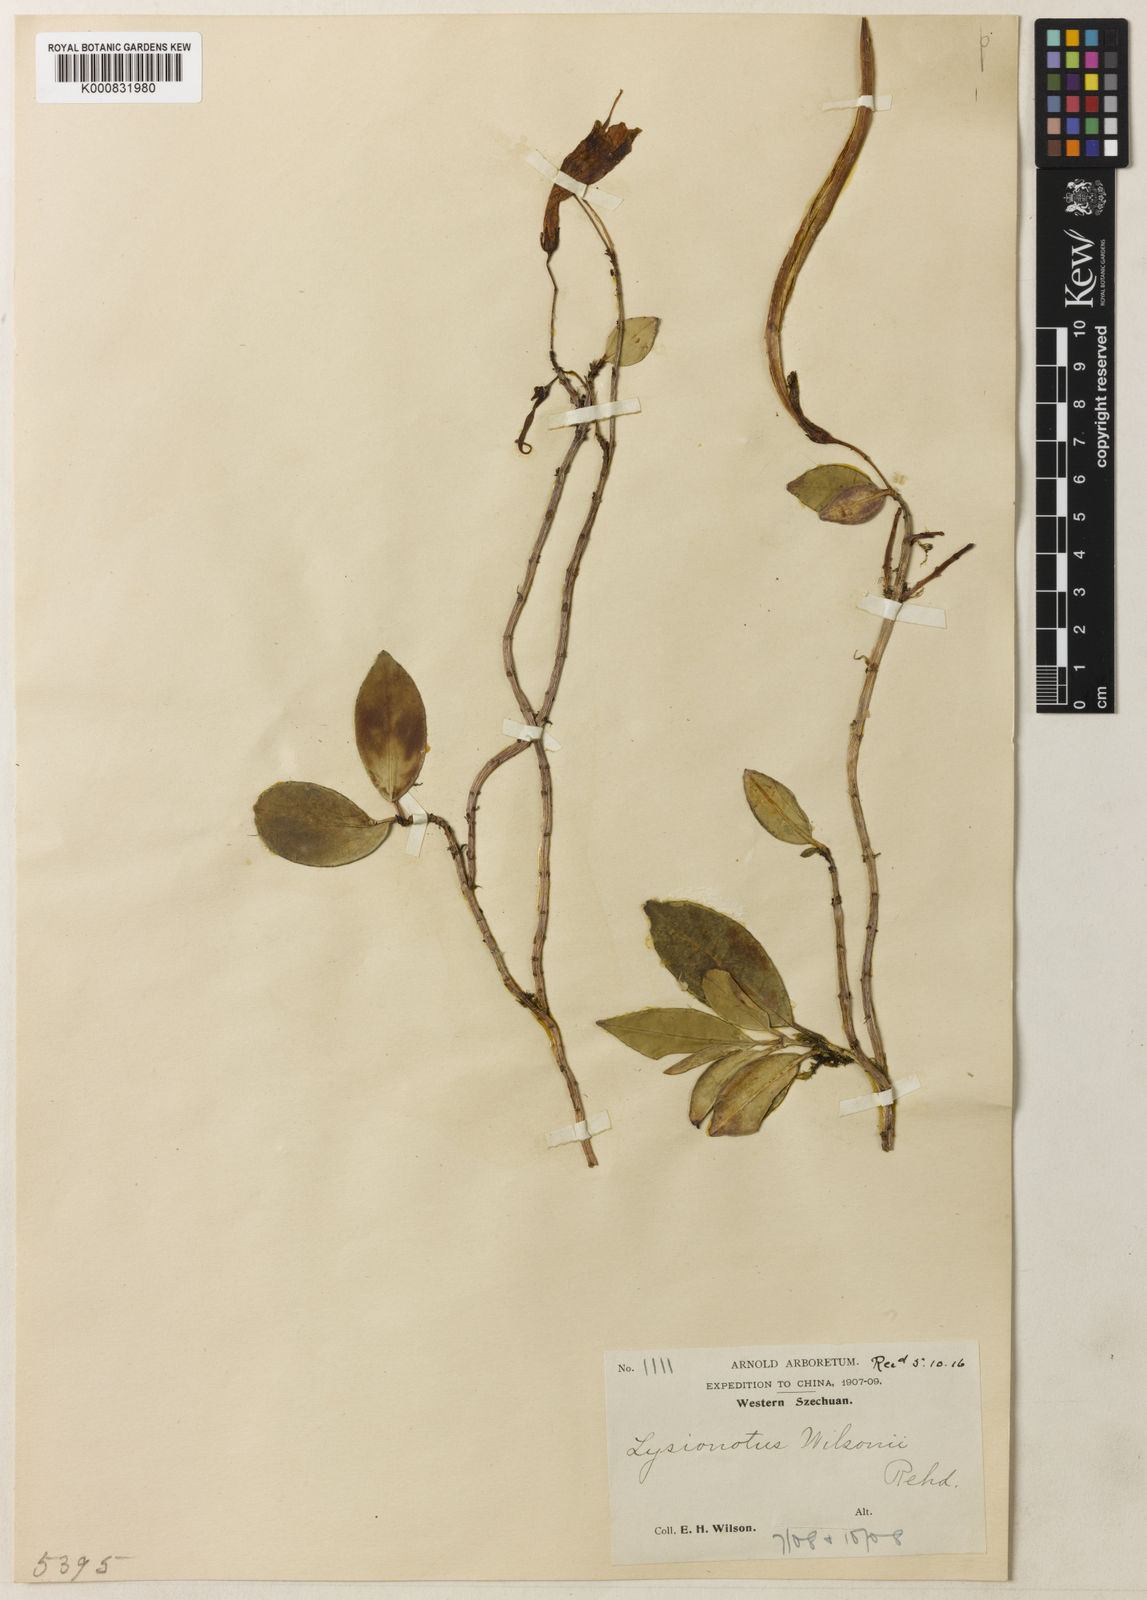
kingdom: Plantae
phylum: Tracheophyta
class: Magnoliopsida
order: Lamiales
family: Gesneriaceae
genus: Lysionotus
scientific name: Lysionotus wilsonii
